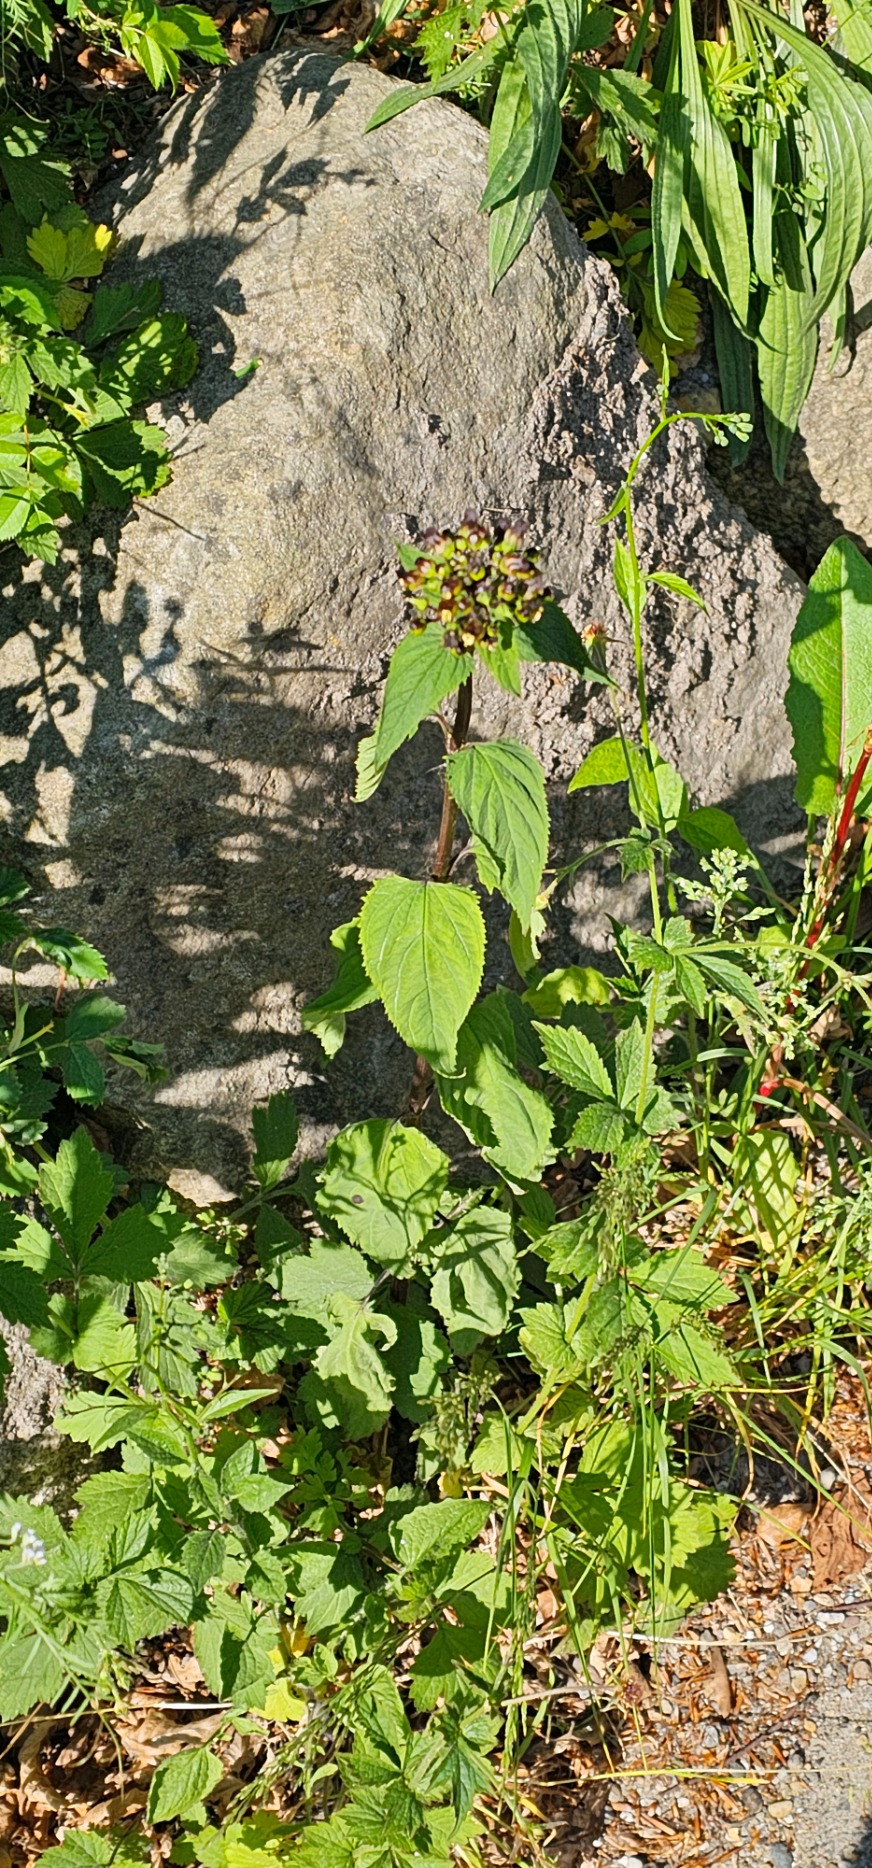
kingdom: Plantae
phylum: Tracheophyta
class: Magnoliopsida
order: Lamiales
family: Scrophulariaceae
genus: Scrophularia
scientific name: Scrophularia nodosa
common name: Knoldet brunrod
